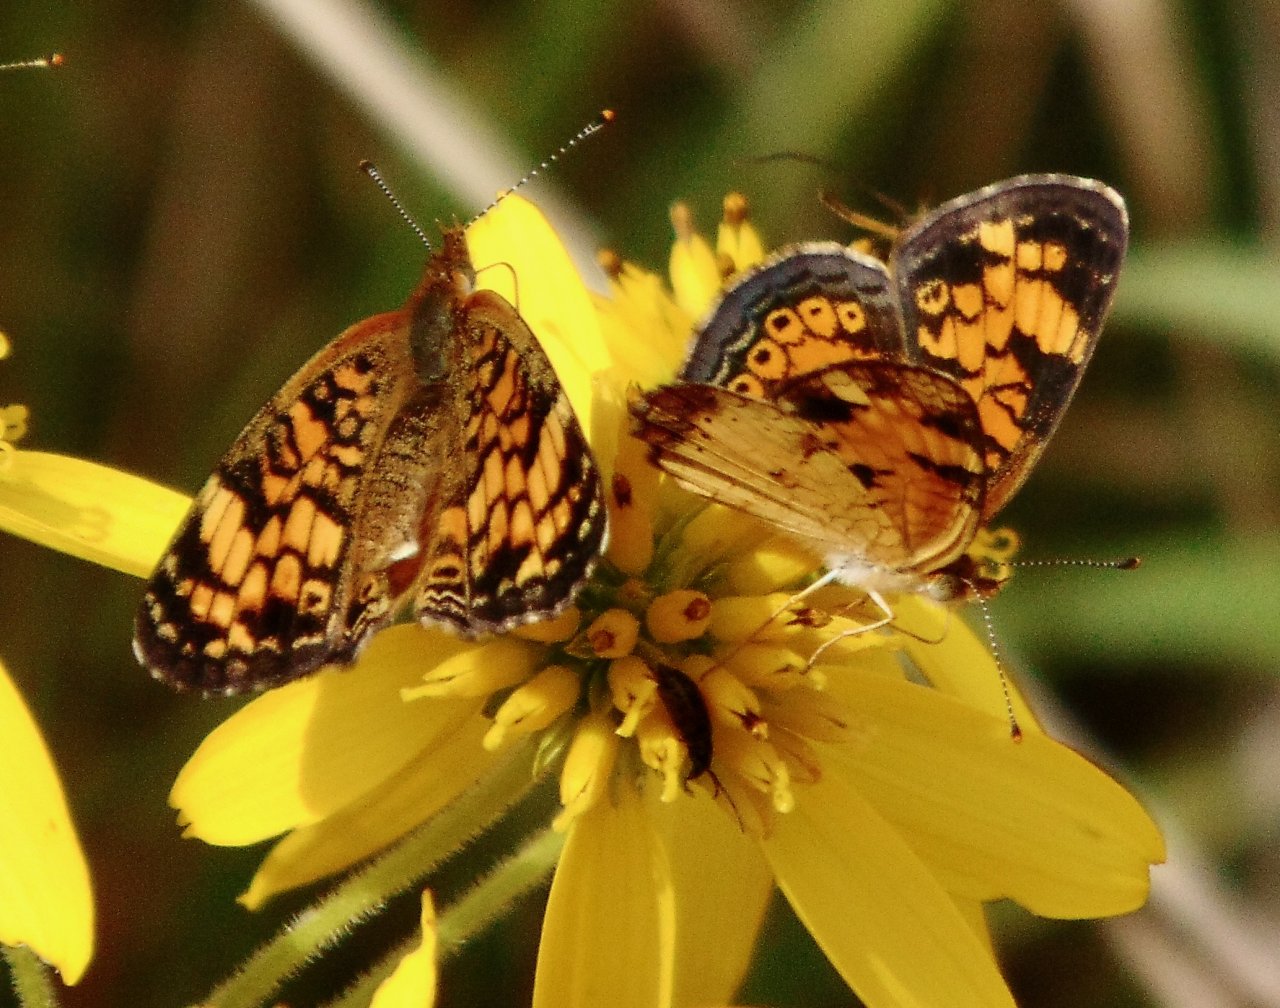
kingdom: Animalia
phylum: Arthropoda
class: Insecta
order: Lepidoptera
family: Nymphalidae
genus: Phyciodes
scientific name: Phyciodes tharos
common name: Pearl Crescent
